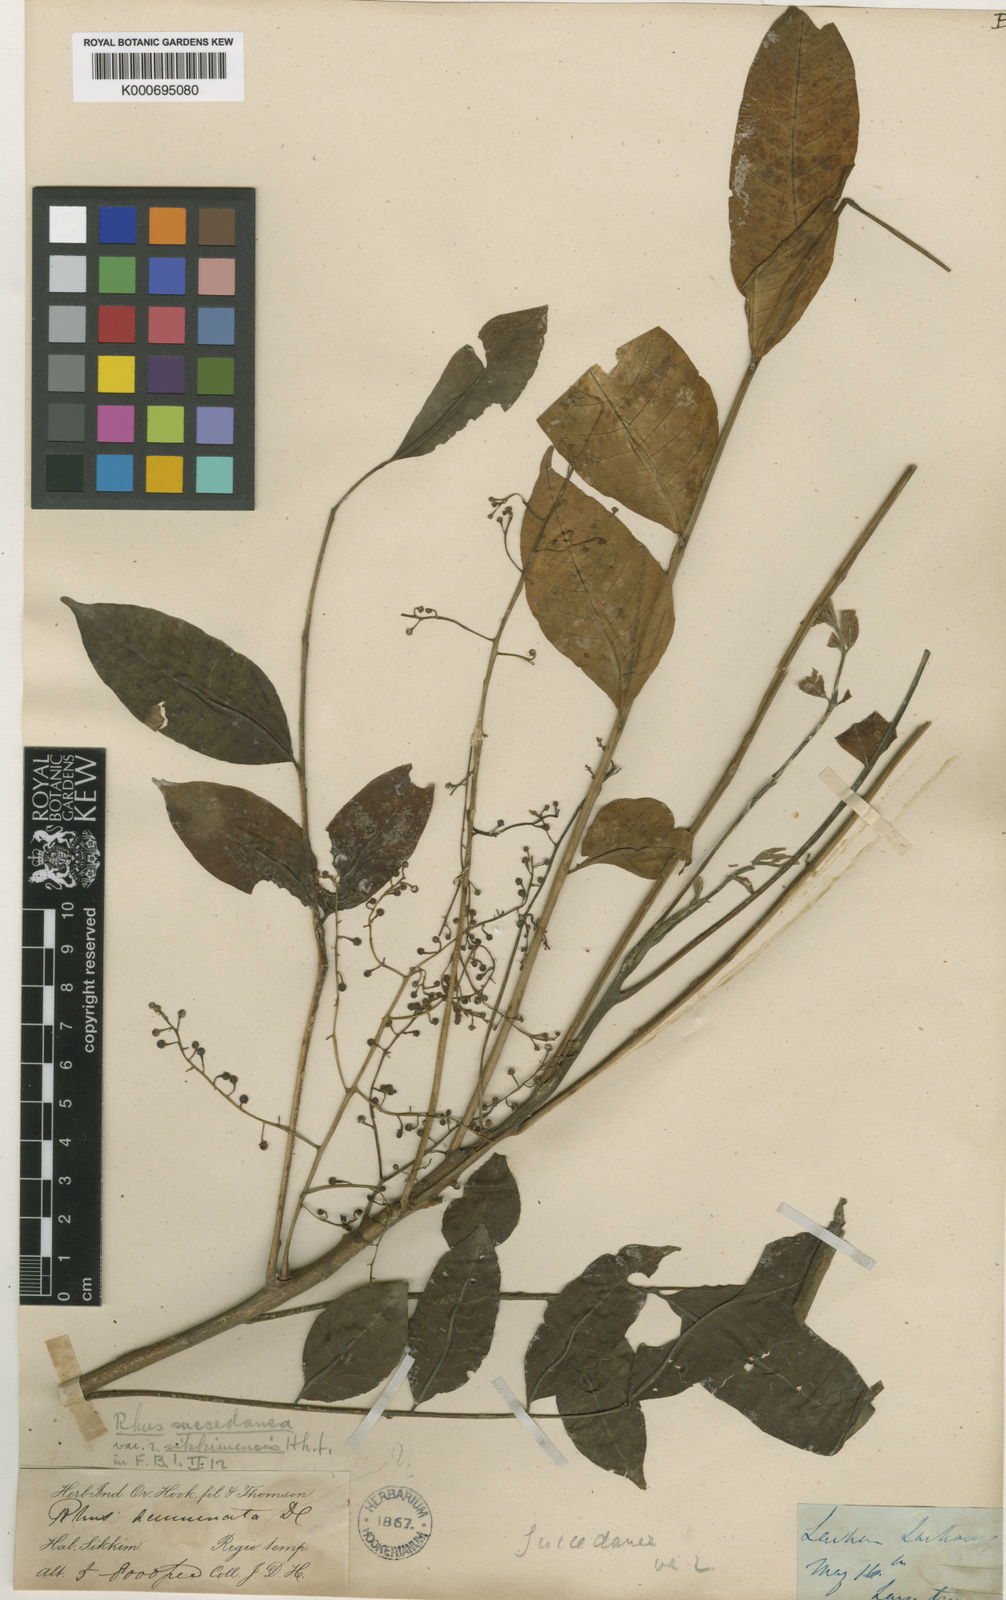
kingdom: Plantae
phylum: Tracheophyta
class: Magnoliopsida
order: Sapindales
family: Anacardiaceae
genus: Toxicodendron
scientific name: Toxicodendron succedaneum
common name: Wax tree
